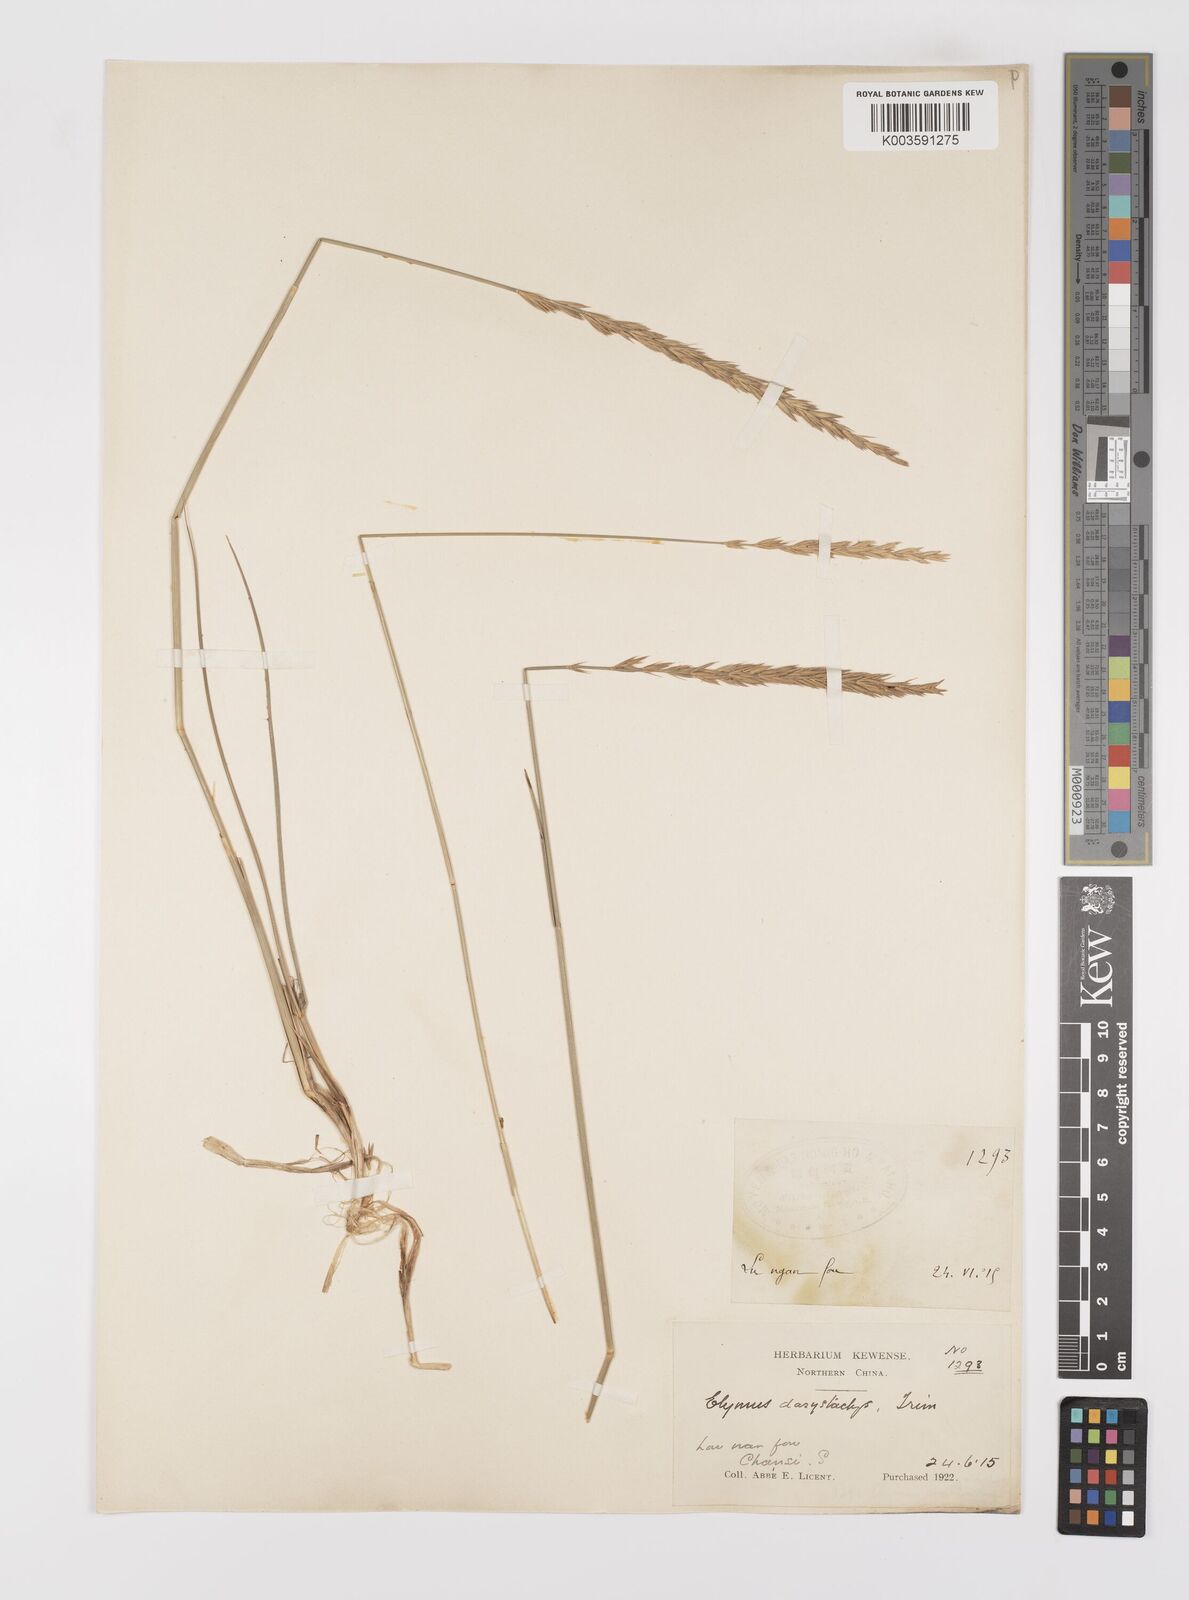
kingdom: Plantae
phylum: Tracheophyta
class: Liliopsida
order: Poales
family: Poaceae
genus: Leymus
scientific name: Leymus secalinus
